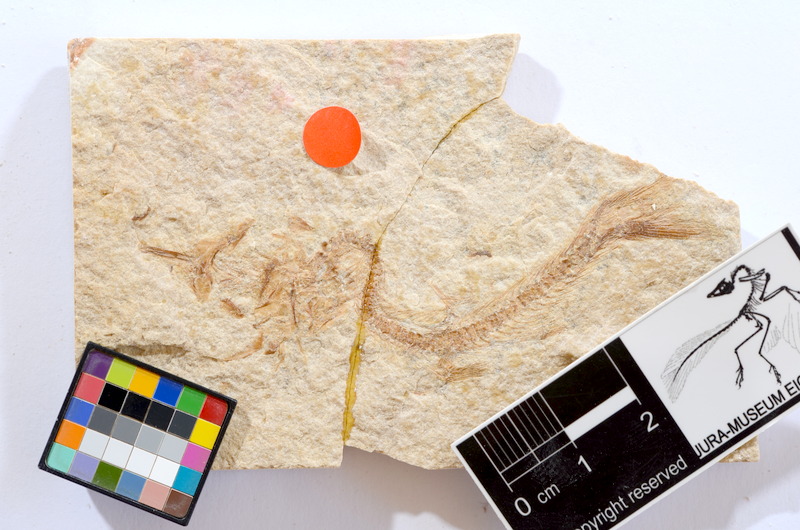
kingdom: Animalia
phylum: Chordata
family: Ascalaboidae
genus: Tharsis
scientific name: Tharsis dubius
